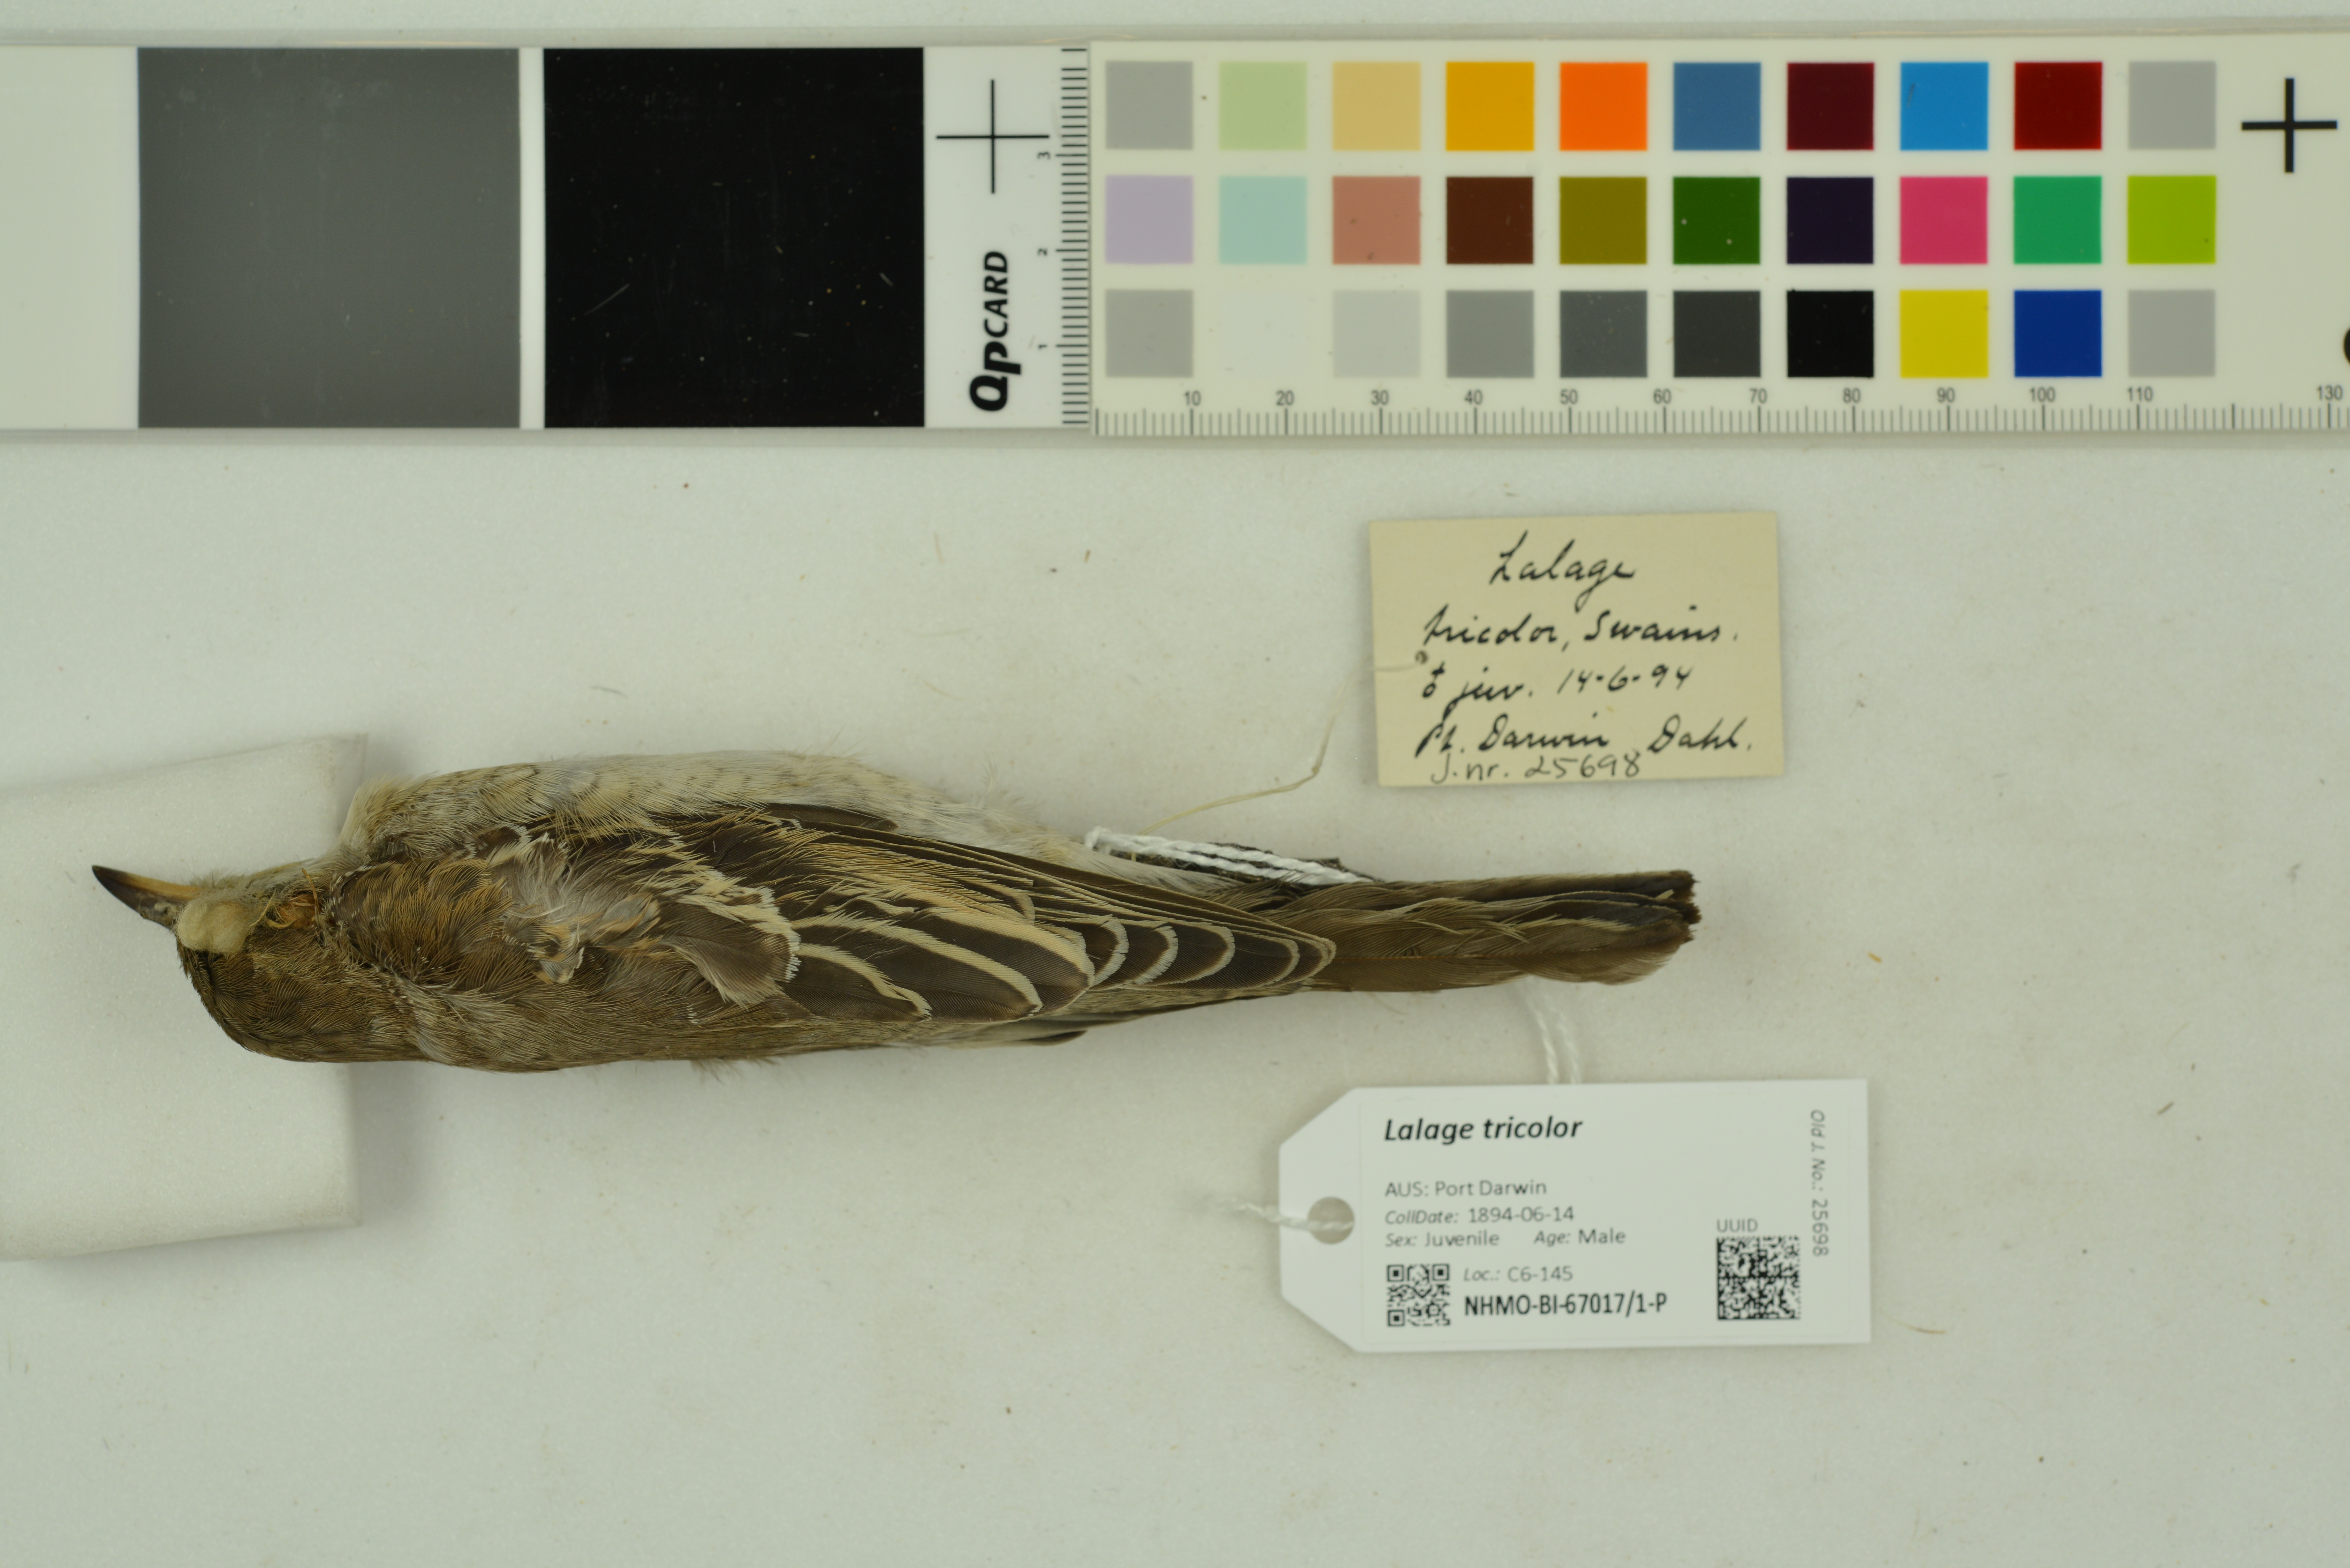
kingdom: Animalia
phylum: Chordata
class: Aves
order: Passeriformes
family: Campephagidae
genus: Lalage
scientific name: Lalage tricolor
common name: White-winged triller
